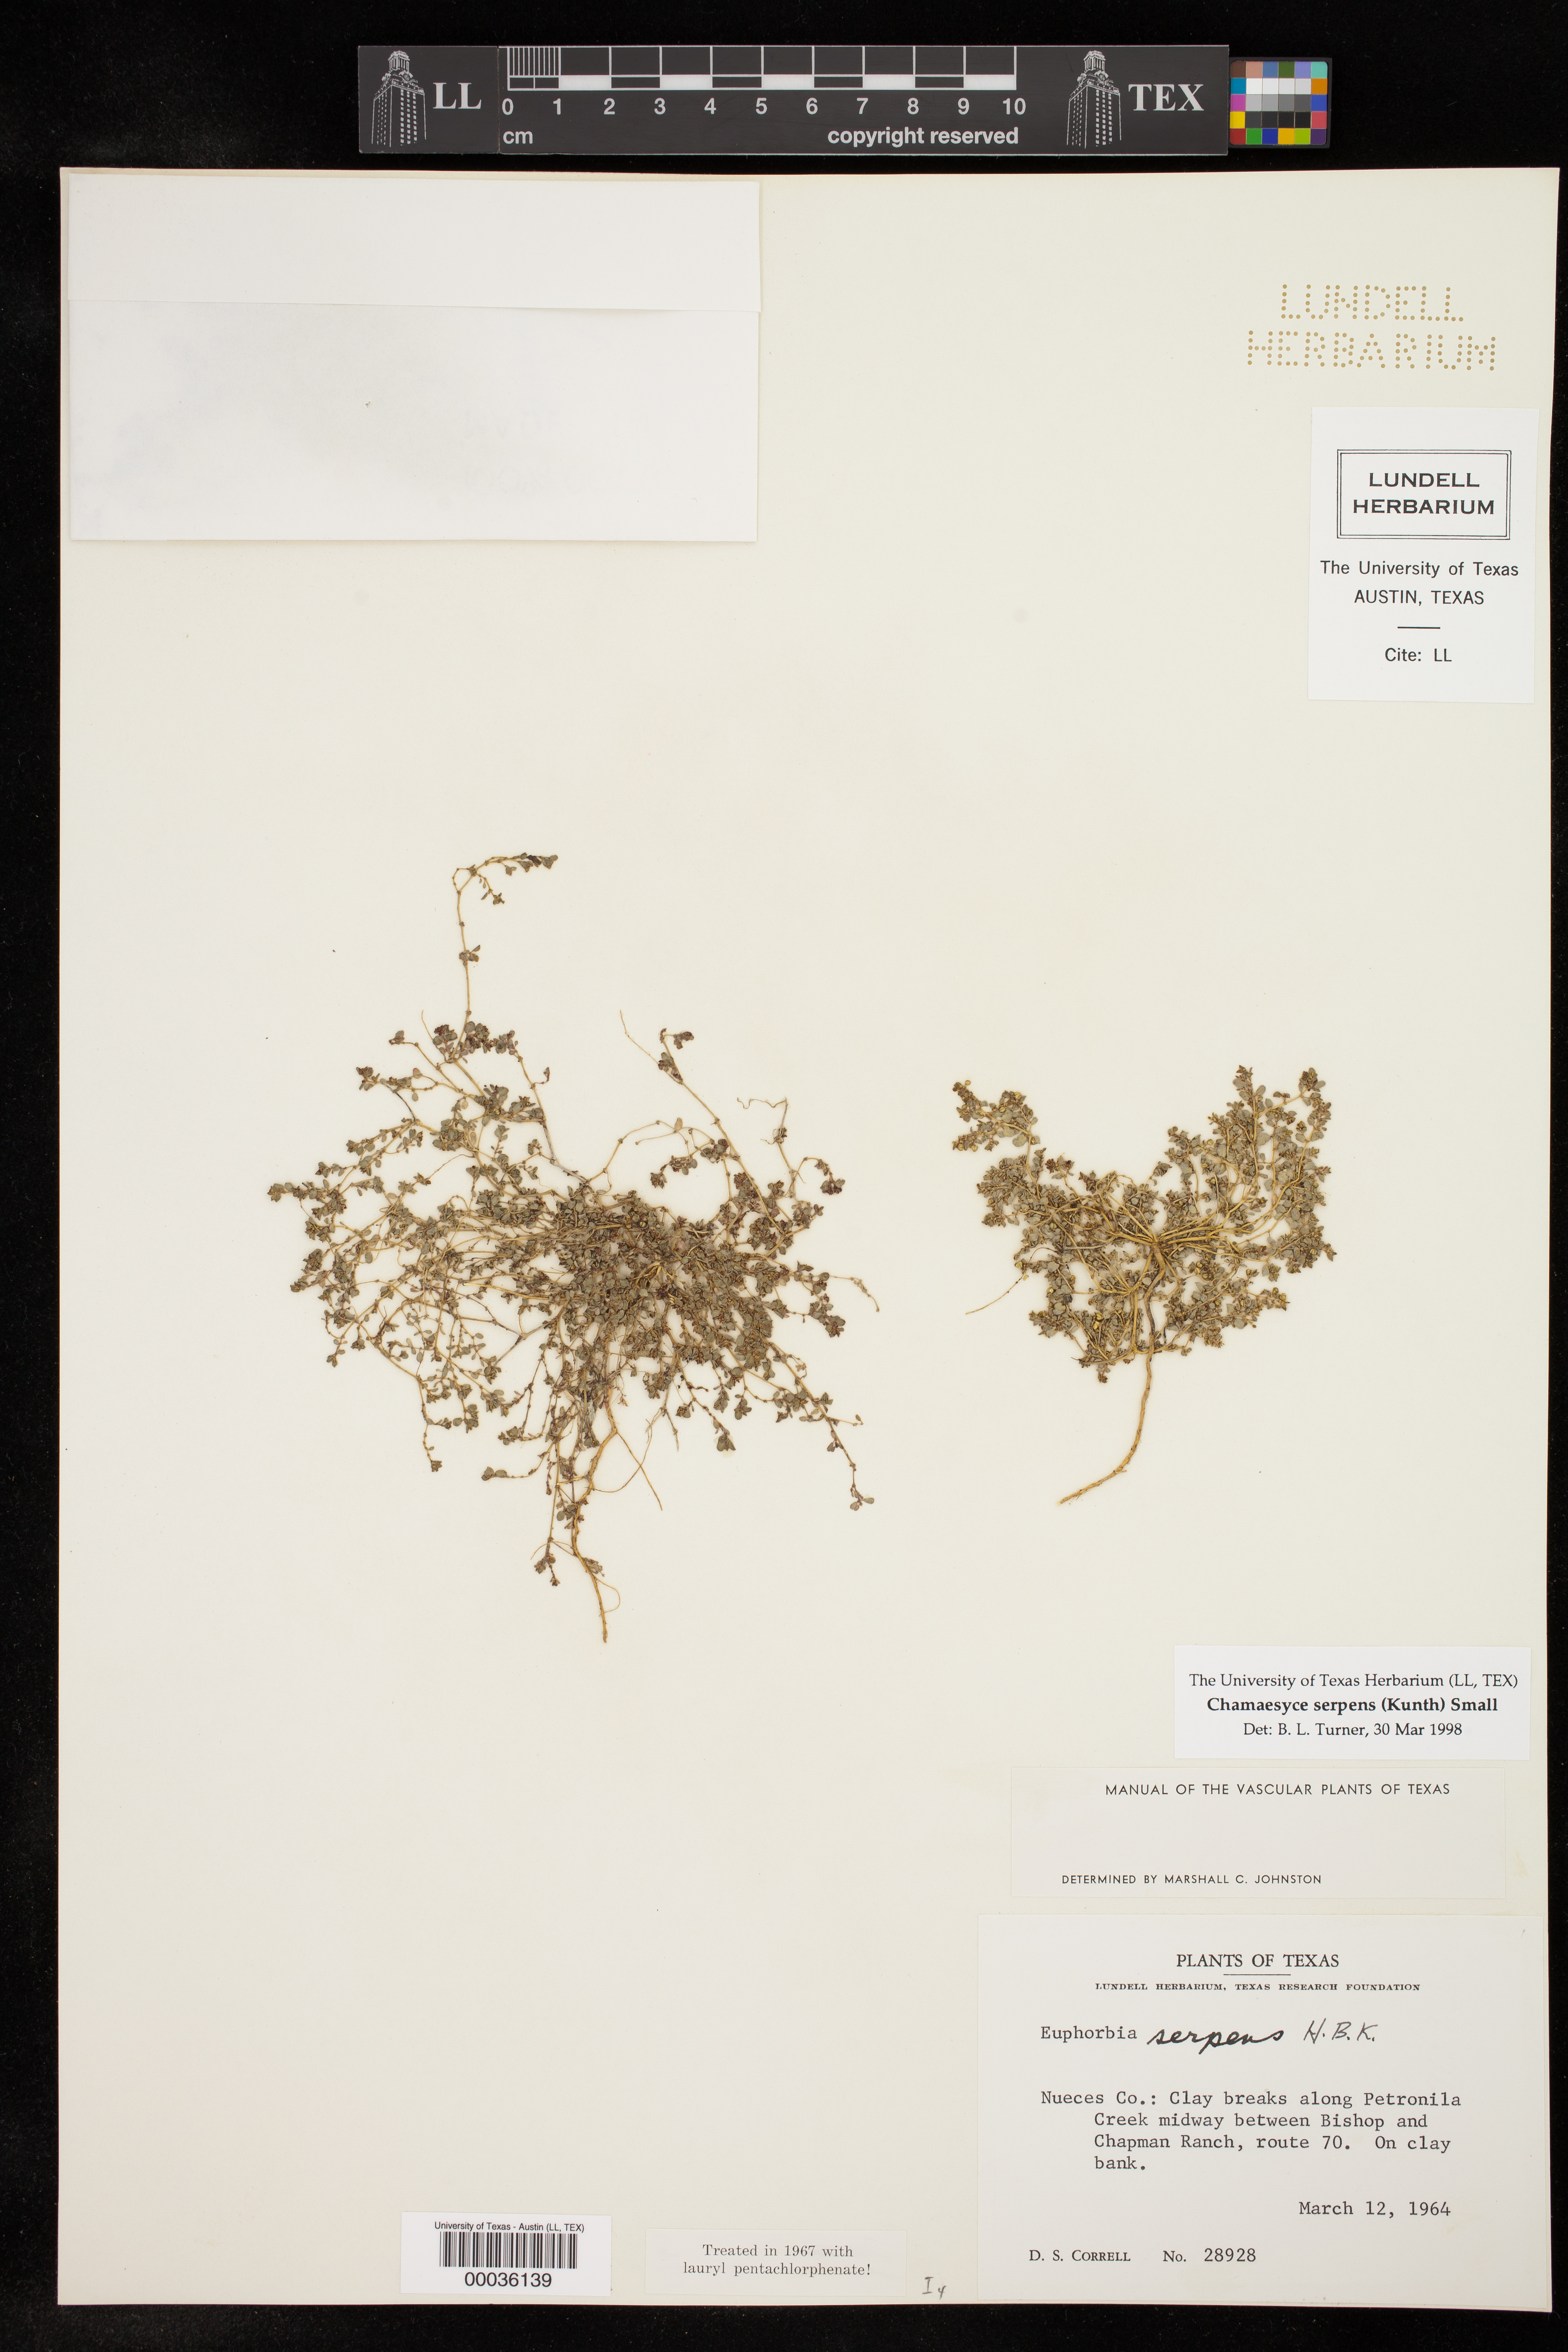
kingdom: Plantae
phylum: Tracheophyta
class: Magnoliopsida
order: Malpighiales
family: Euphorbiaceae
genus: Euphorbia
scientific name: Euphorbia serpens
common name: Matted sandmat
